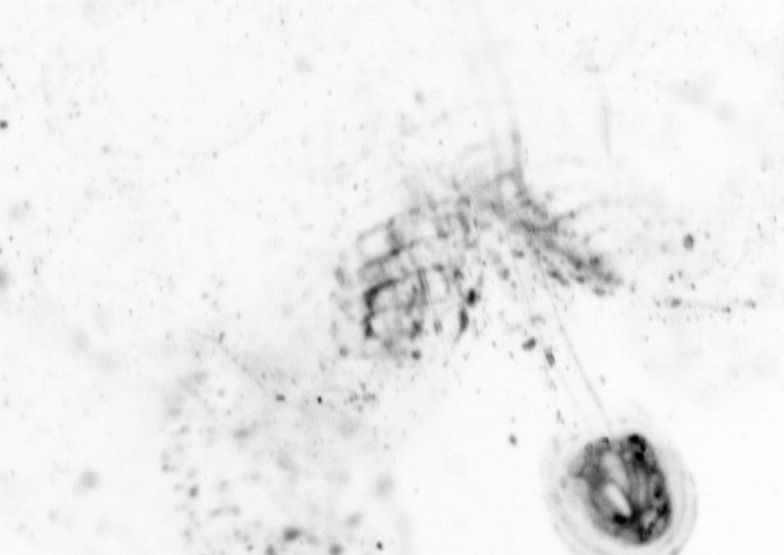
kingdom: Animalia
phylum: Chordata
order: Copelata
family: Fritillariidae
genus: Appendicularia
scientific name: Appendicularia
